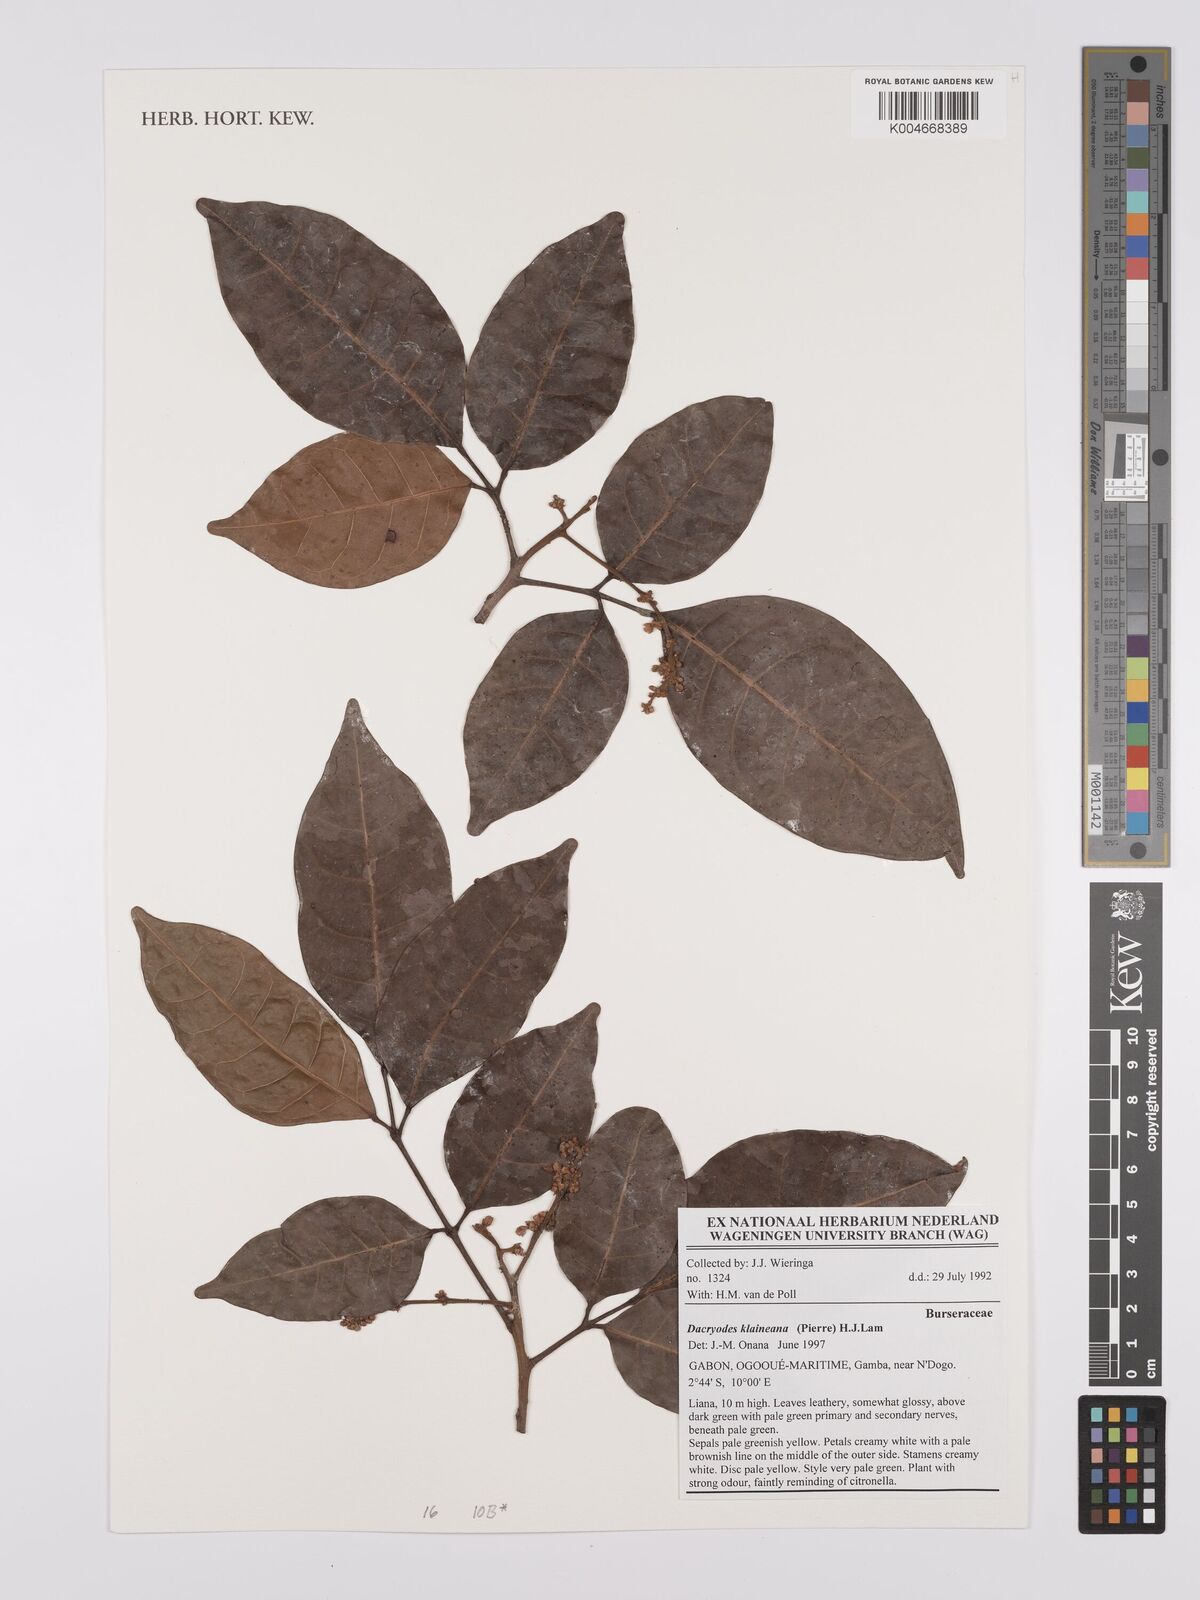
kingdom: Plantae
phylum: Tracheophyta
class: Magnoliopsida
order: Sapindales
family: Burseraceae
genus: Pachylobus
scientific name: Pachylobus klaineana
